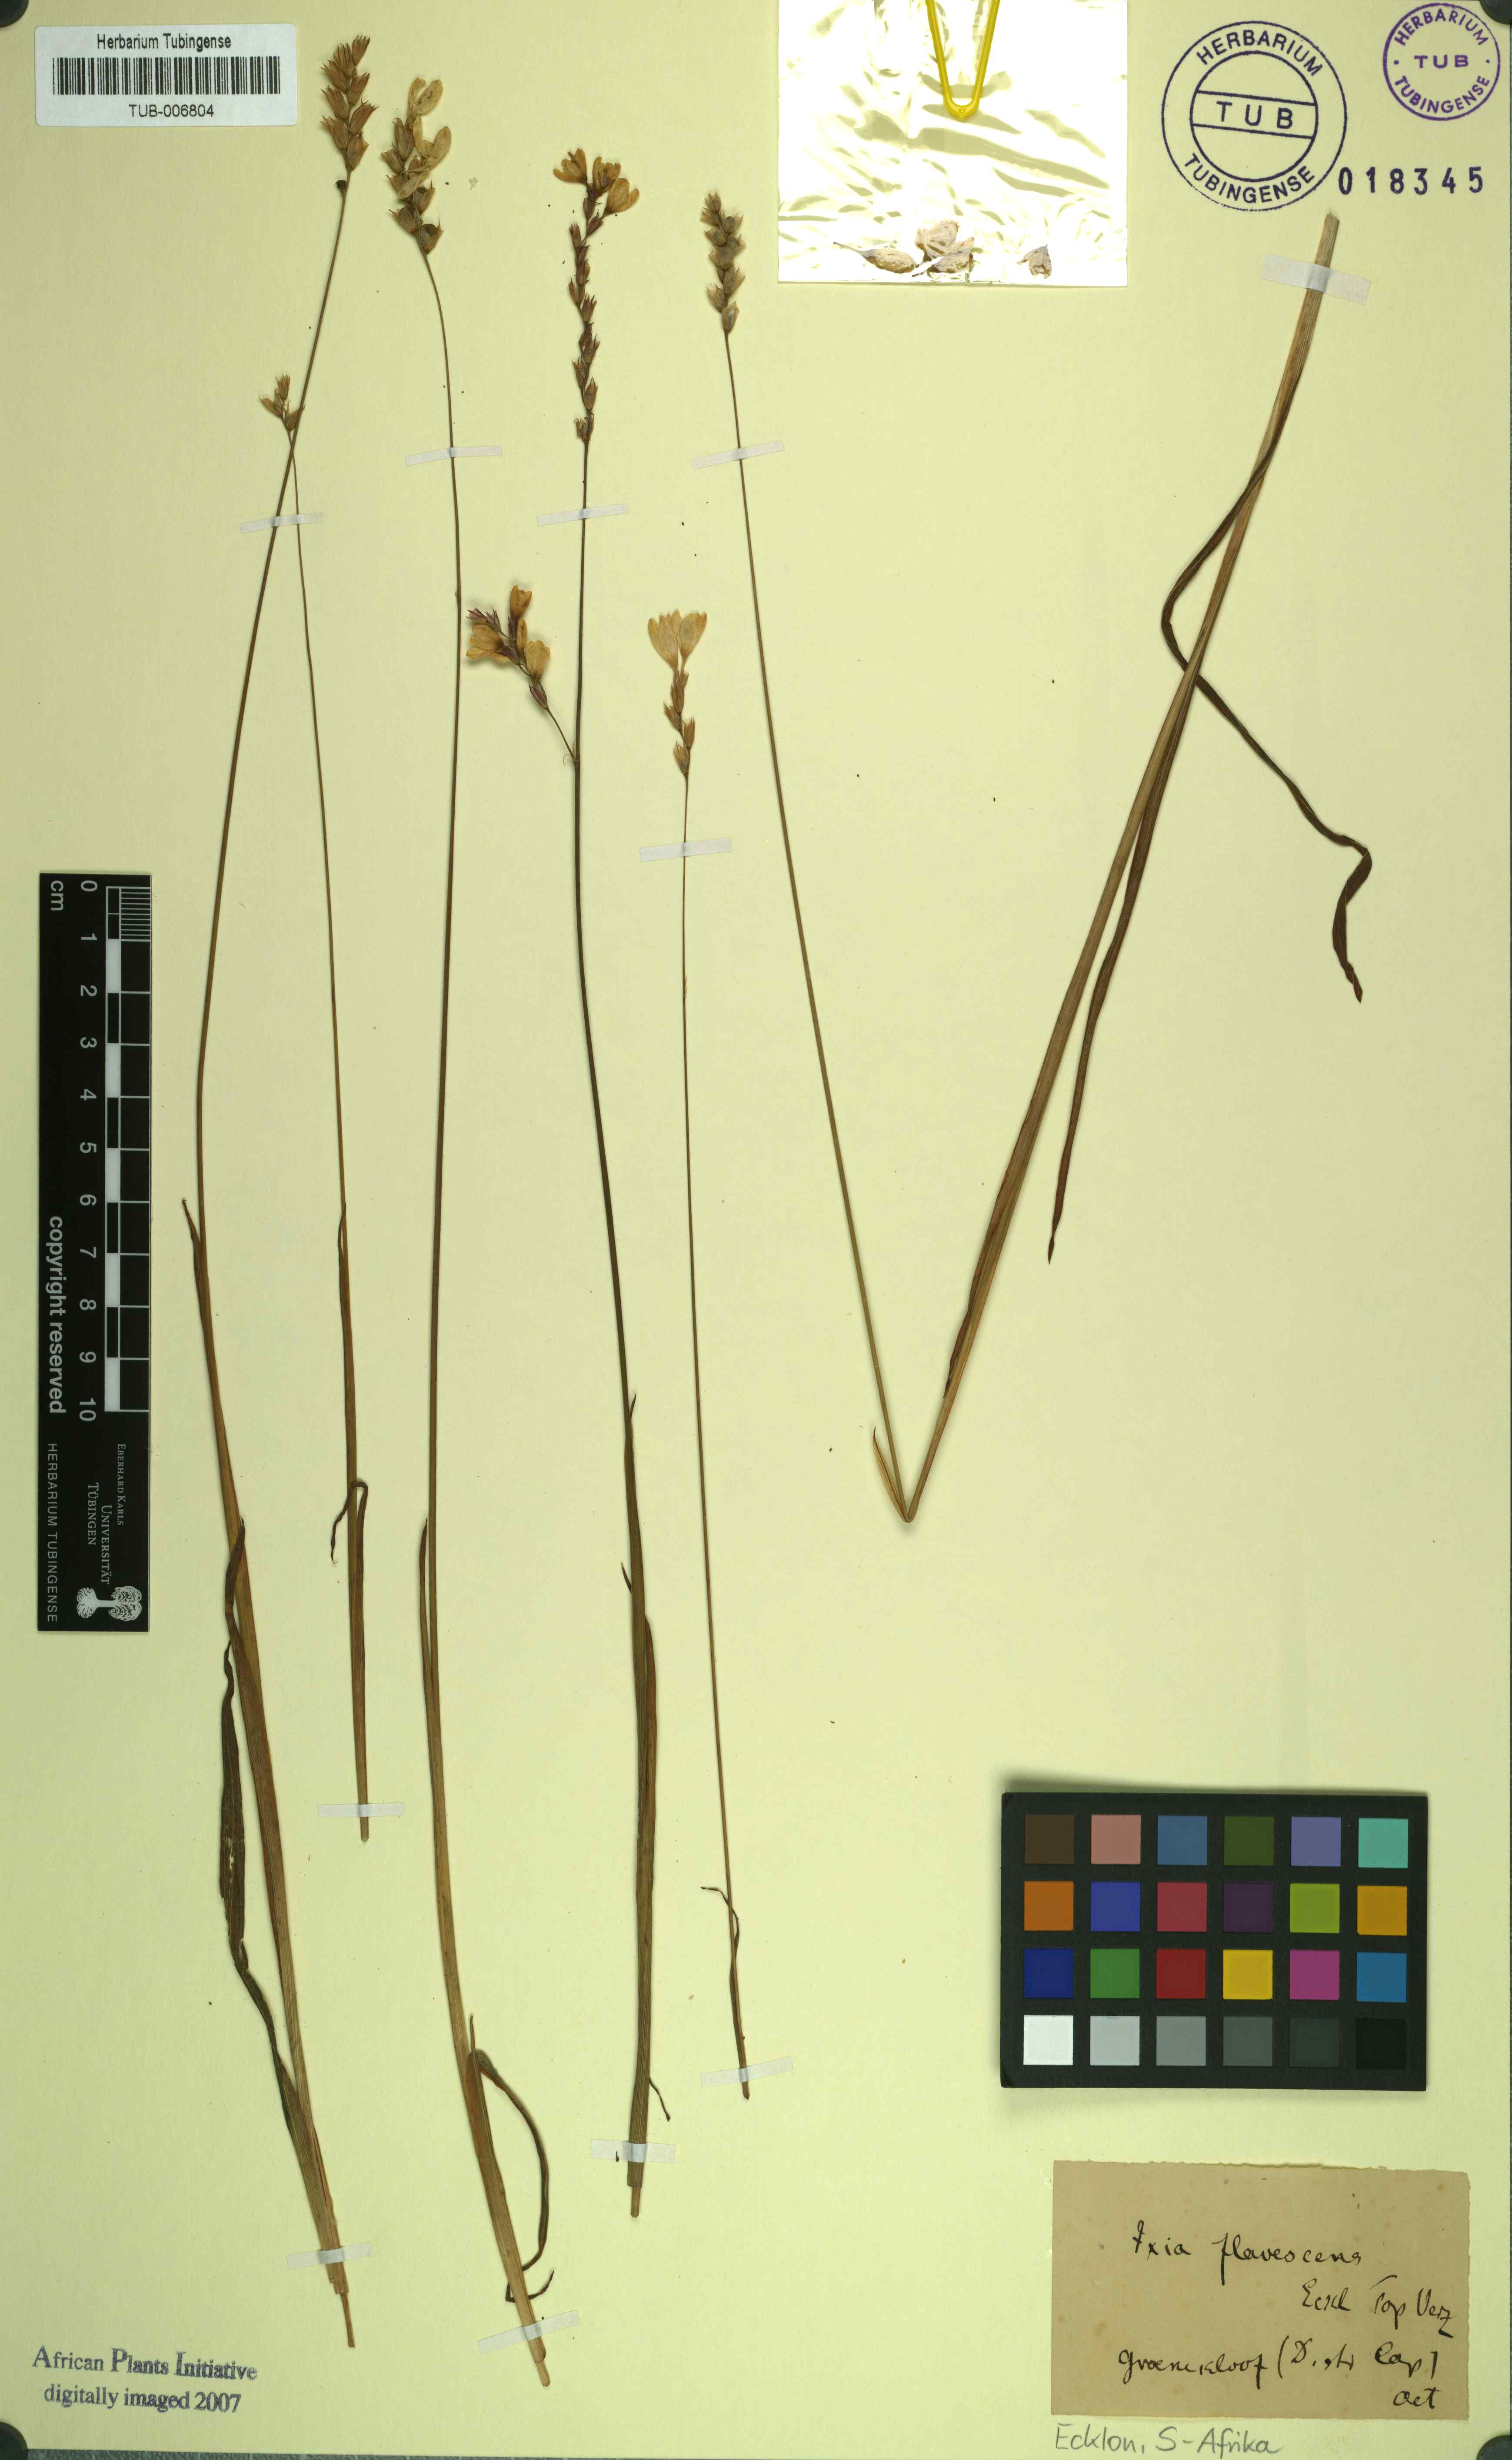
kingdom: Plantae
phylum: Tracheophyta
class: Liliopsida
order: Asparagales
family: Iridaceae
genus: Ixia
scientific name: Ixia polystachya
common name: White-and-yellow-flower cornlily
